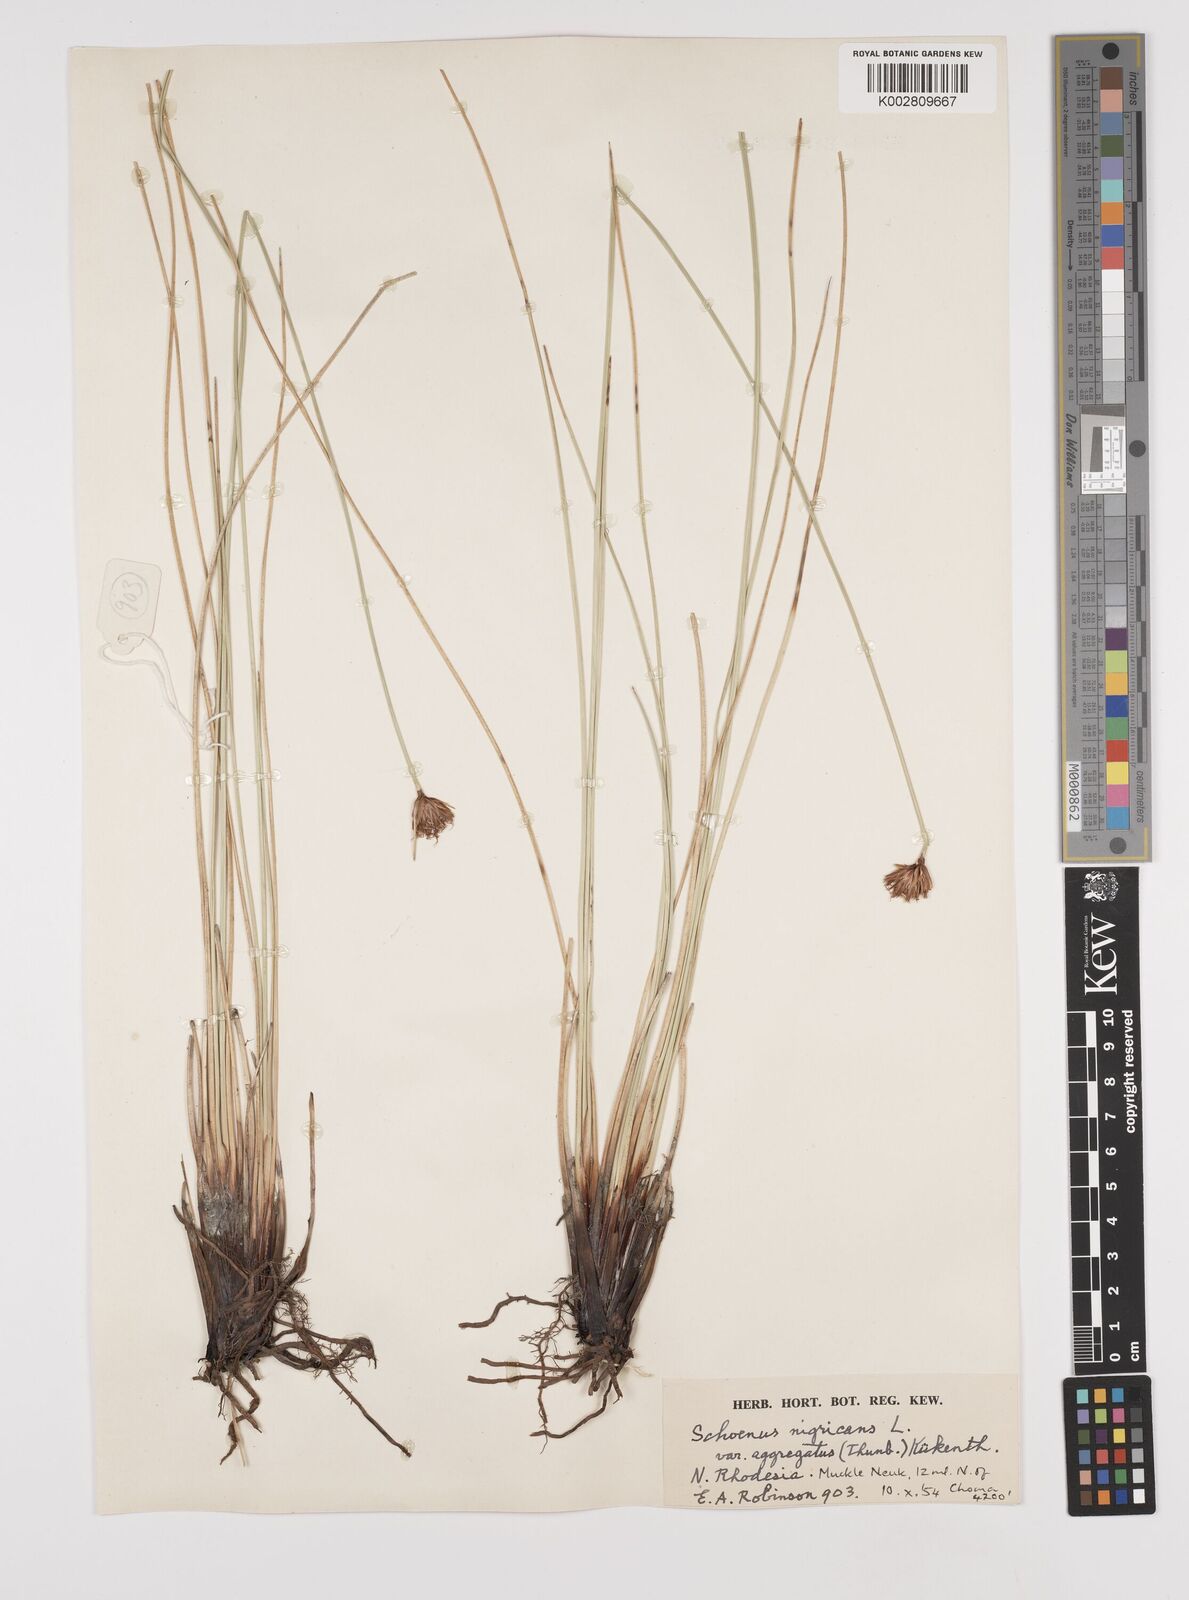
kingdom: Plantae
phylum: Tracheophyta
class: Liliopsida
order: Poales
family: Cyperaceae
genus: Schoenus
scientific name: Schoenus nigricans
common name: Black bog-rush
